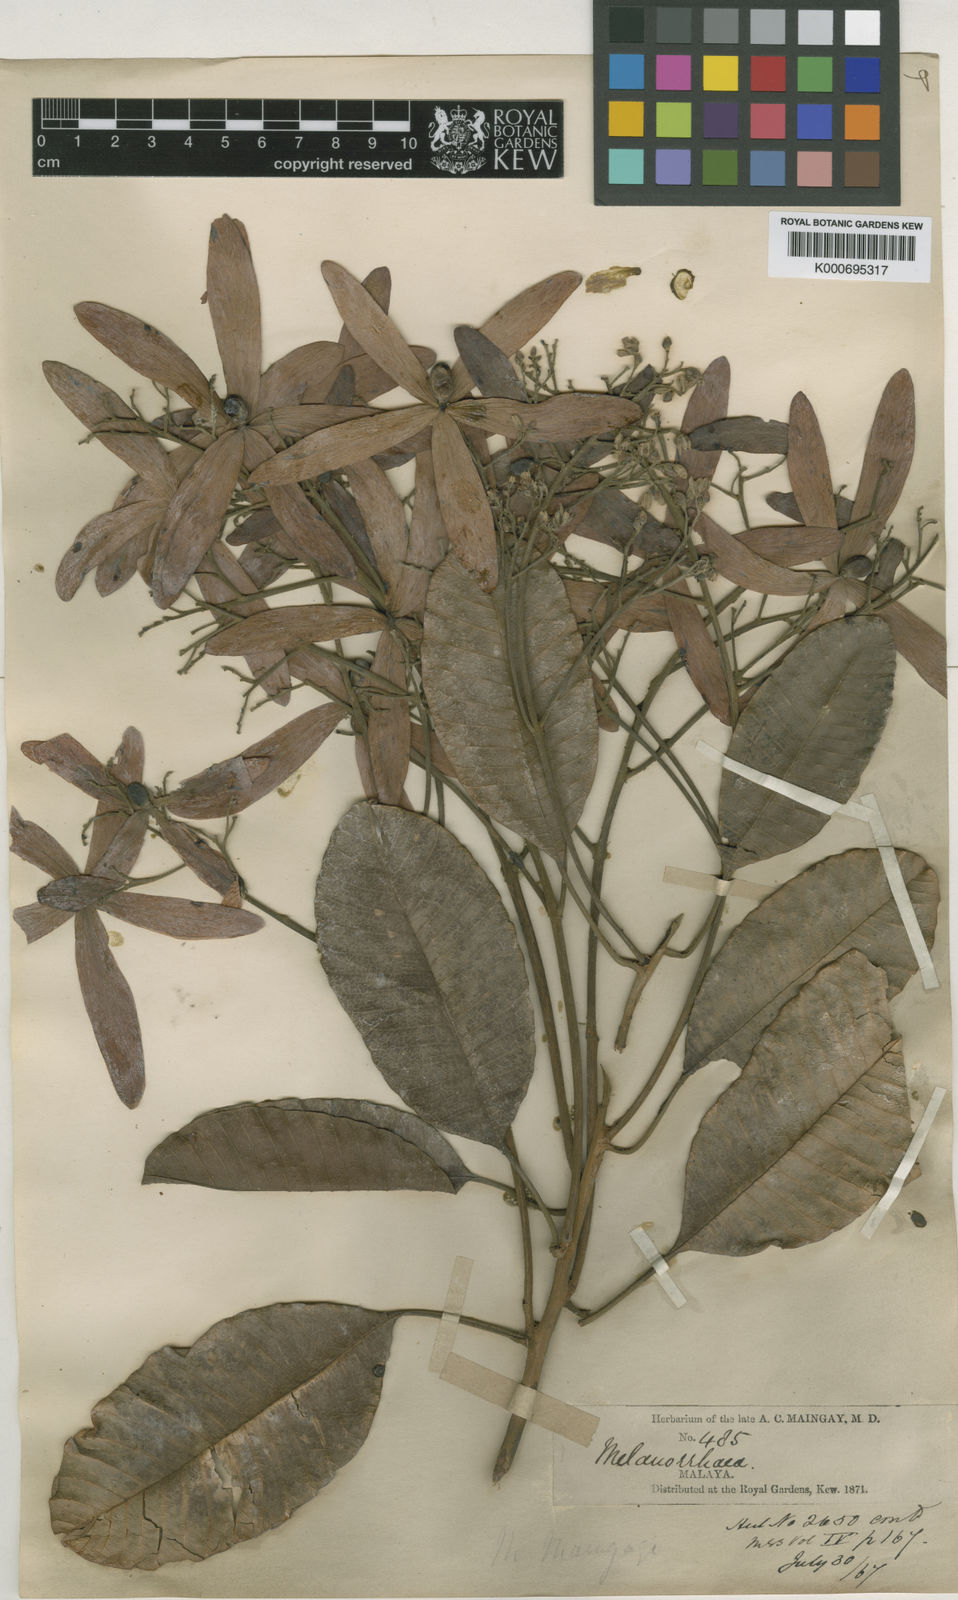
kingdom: Plantae
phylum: Tracheophyta
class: Magnoliopsida
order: Sapindales
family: Anacardiaceae
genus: Gluta
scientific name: Gluta wallichii
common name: Common rengas
